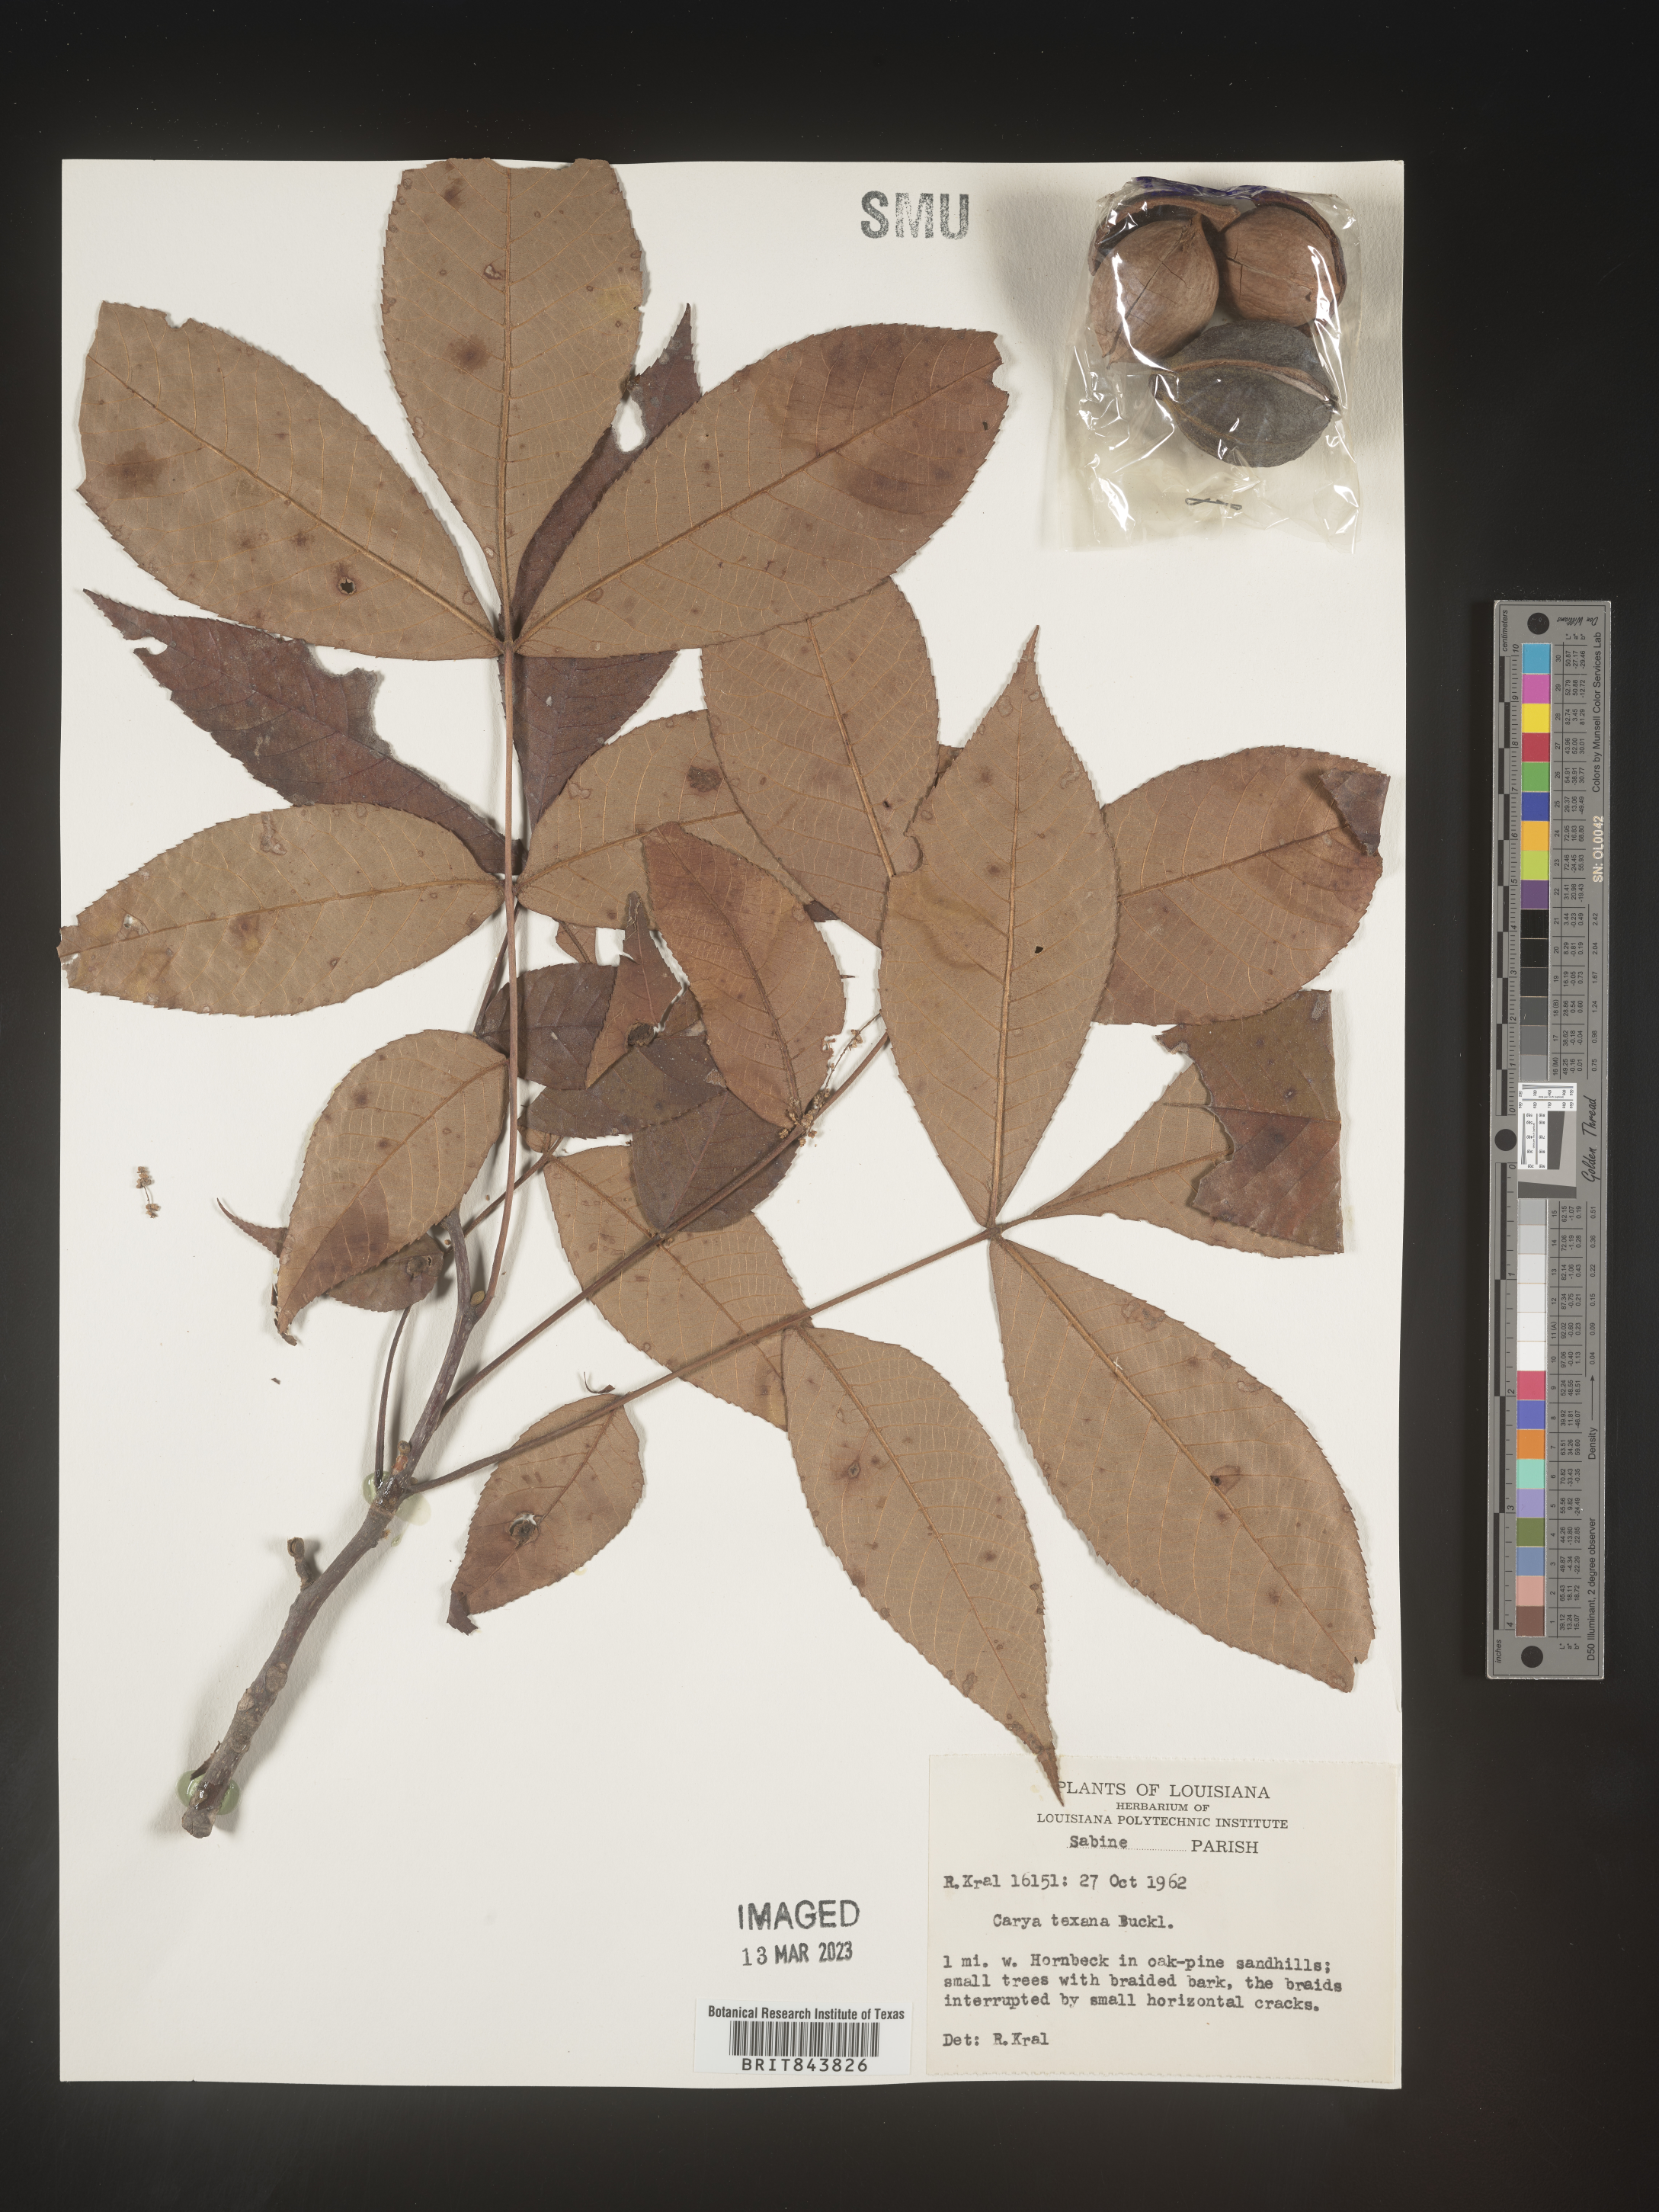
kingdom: Plantae
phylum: Tracheophyta
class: Magnoliopsida
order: Fagales
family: Juglandaceae
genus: Carya
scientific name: Carya texana
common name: Black hickory
